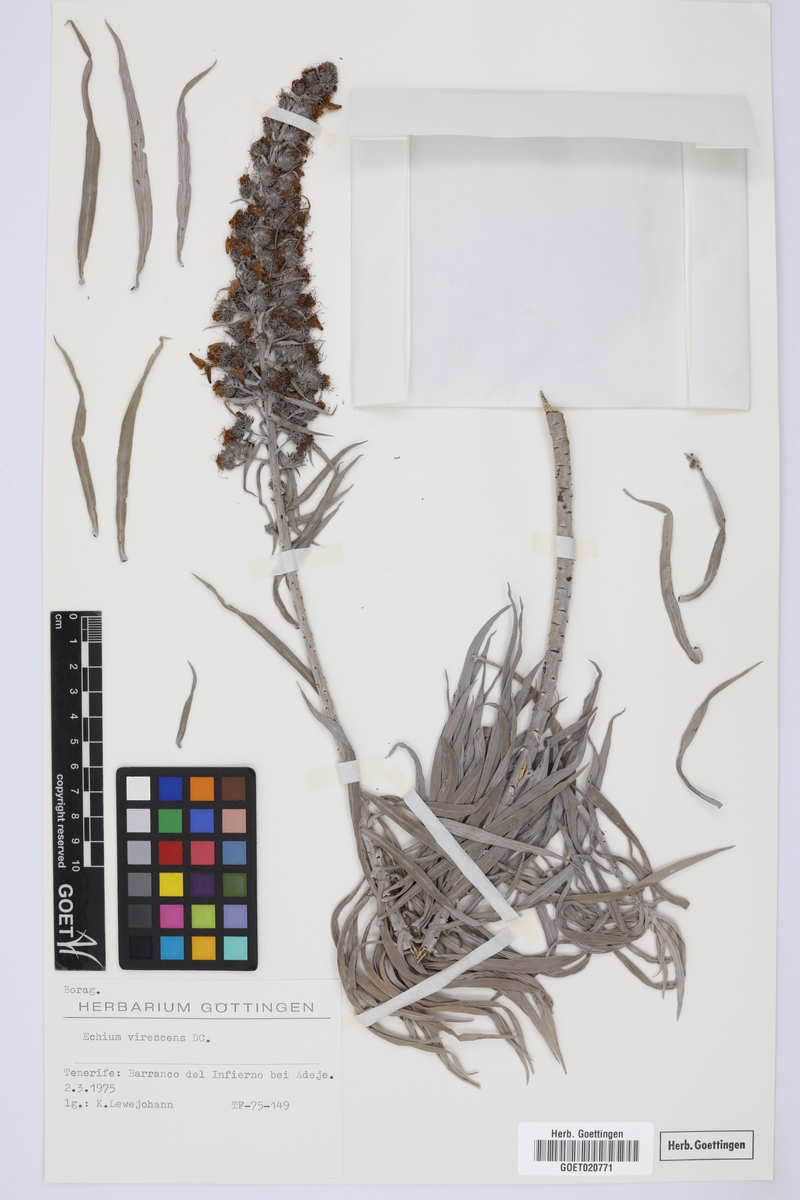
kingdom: Plantae
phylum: Tracheophyta
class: Magnoliopsida
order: Boraginales
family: Boraginaceae
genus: Echium
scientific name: Echium virescens
